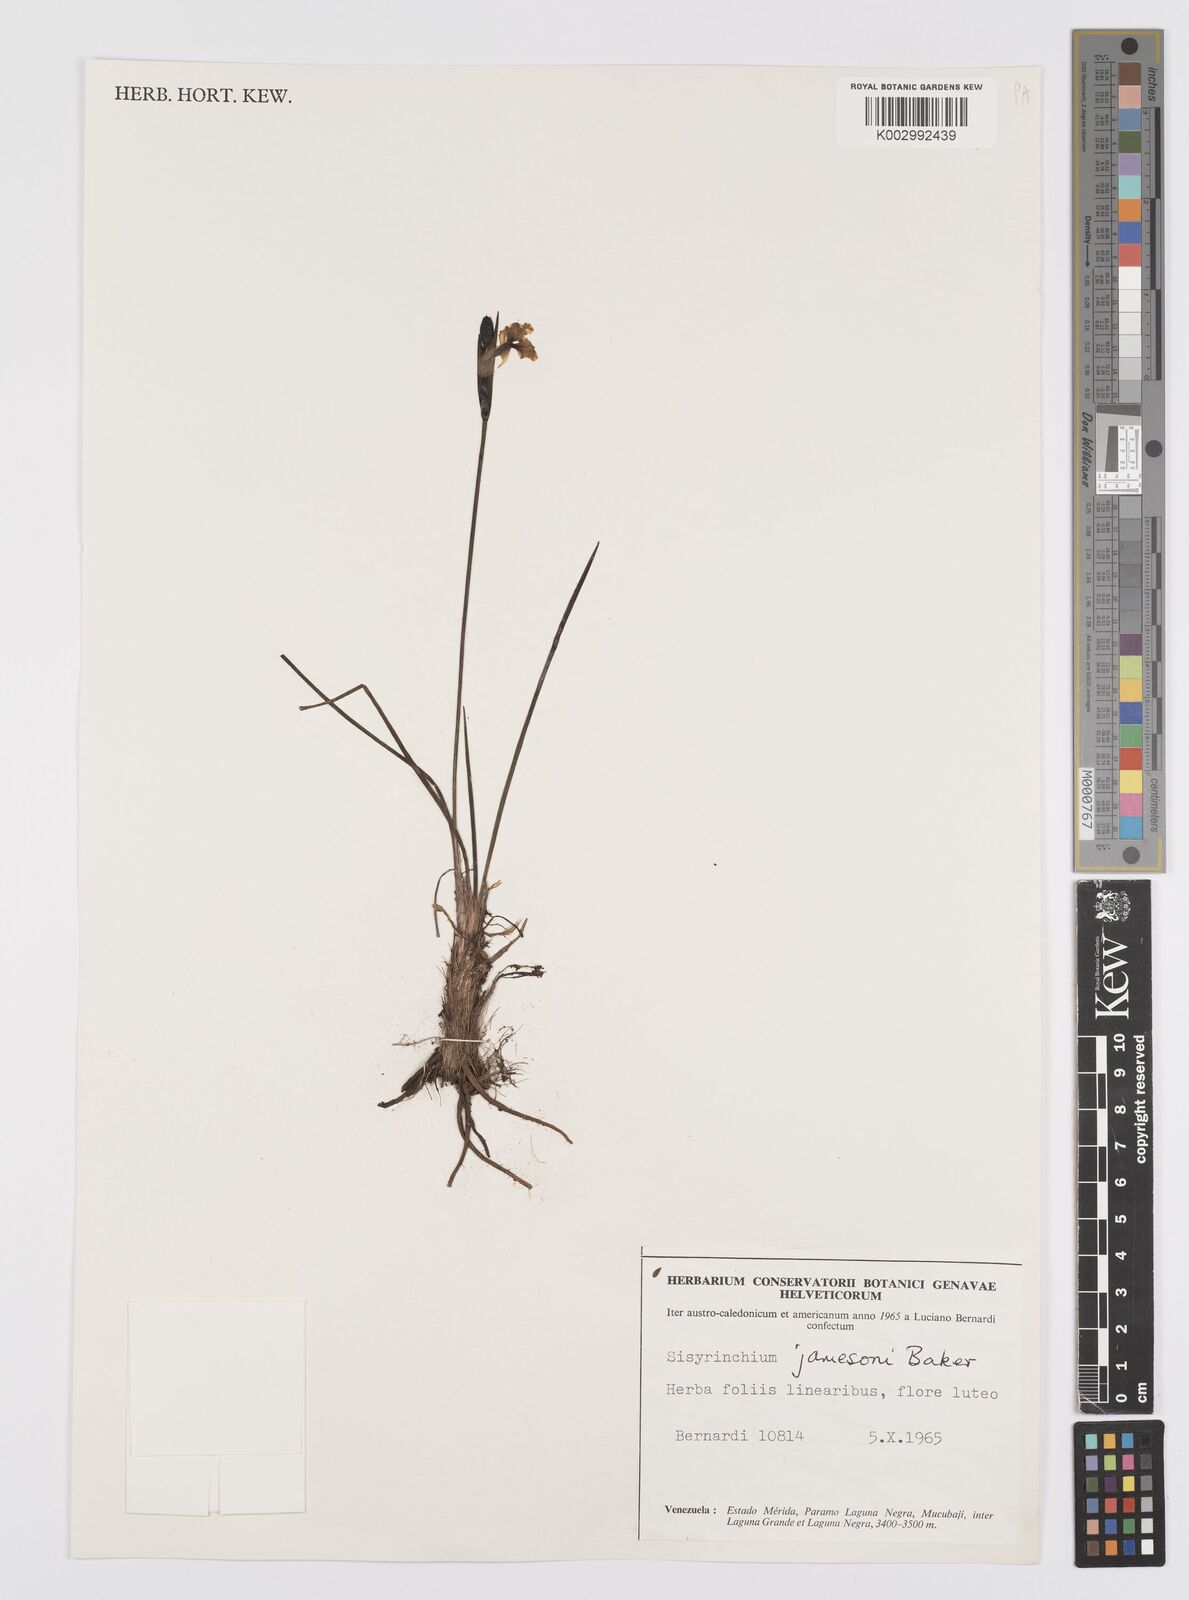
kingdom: Plantae
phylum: Tracheophyta
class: Liliopsida
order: Asparagales
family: Iridaceae
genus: Sisyrinchium
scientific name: Sisyrinchium jamesonii
